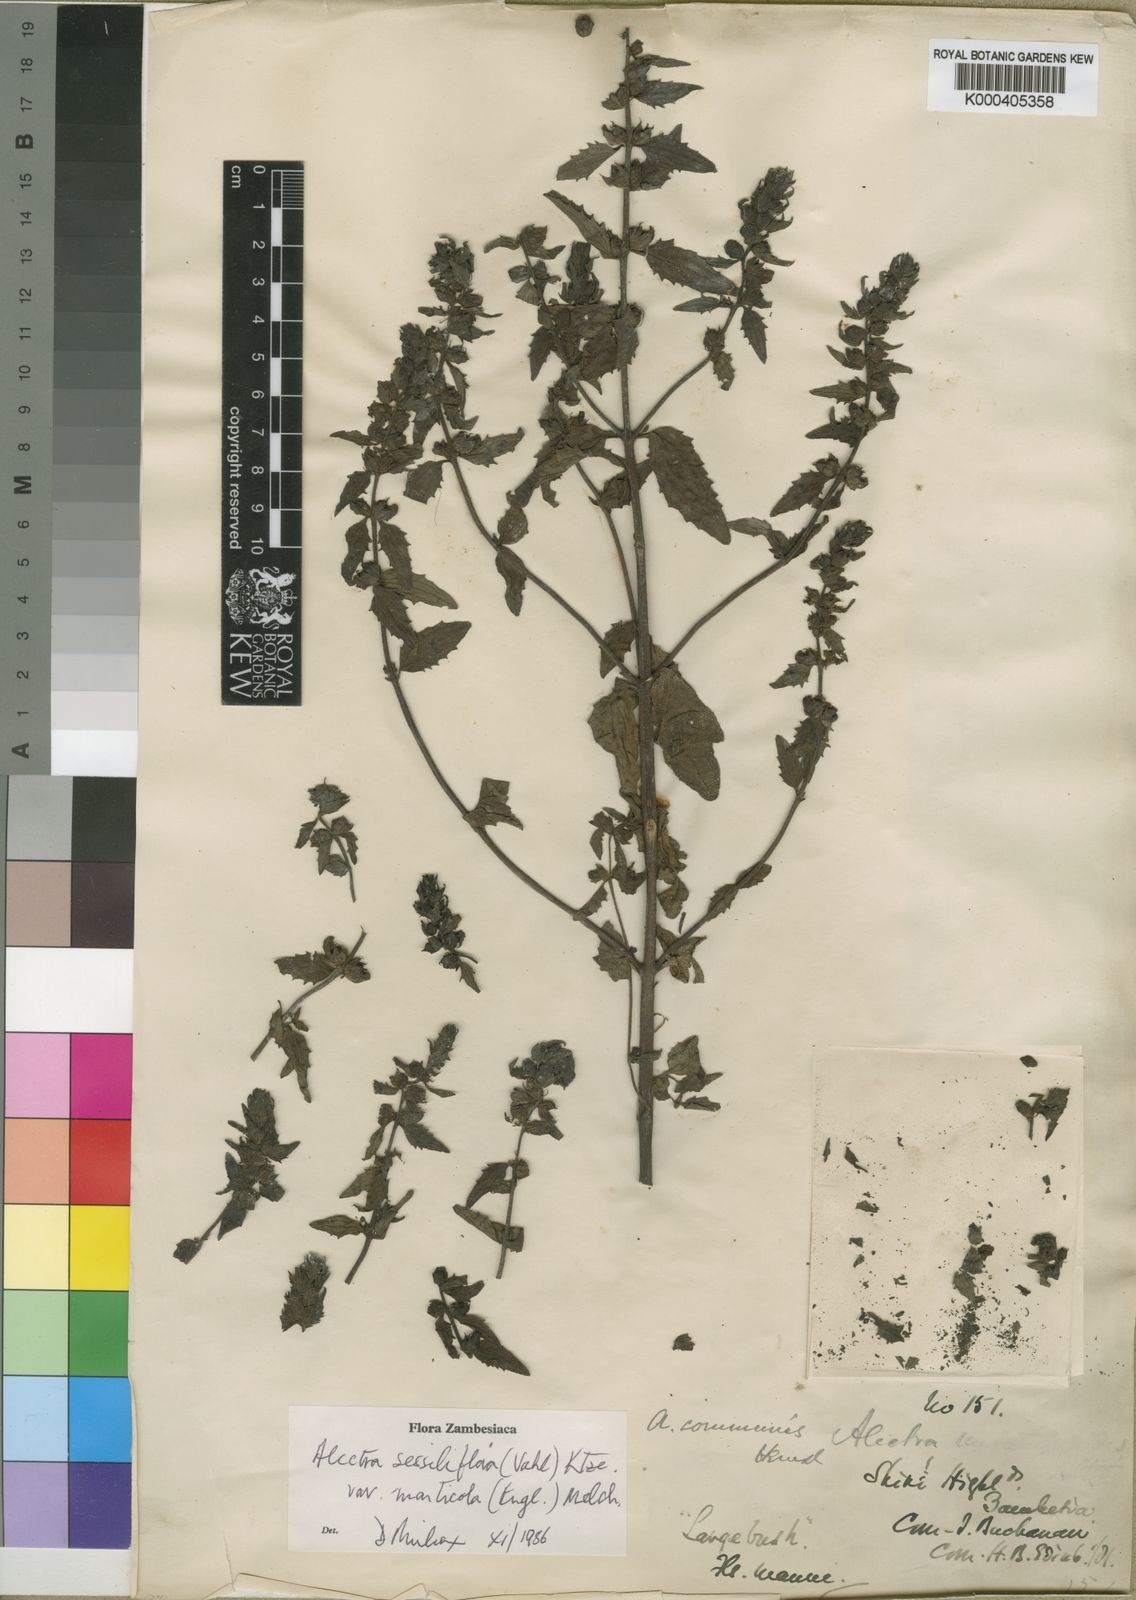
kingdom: Plantae
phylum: Tracheophyta
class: Magnoliopsida
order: Lamiales
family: Orobanchaceae
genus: Alectra
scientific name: Alectra sessiliflora
